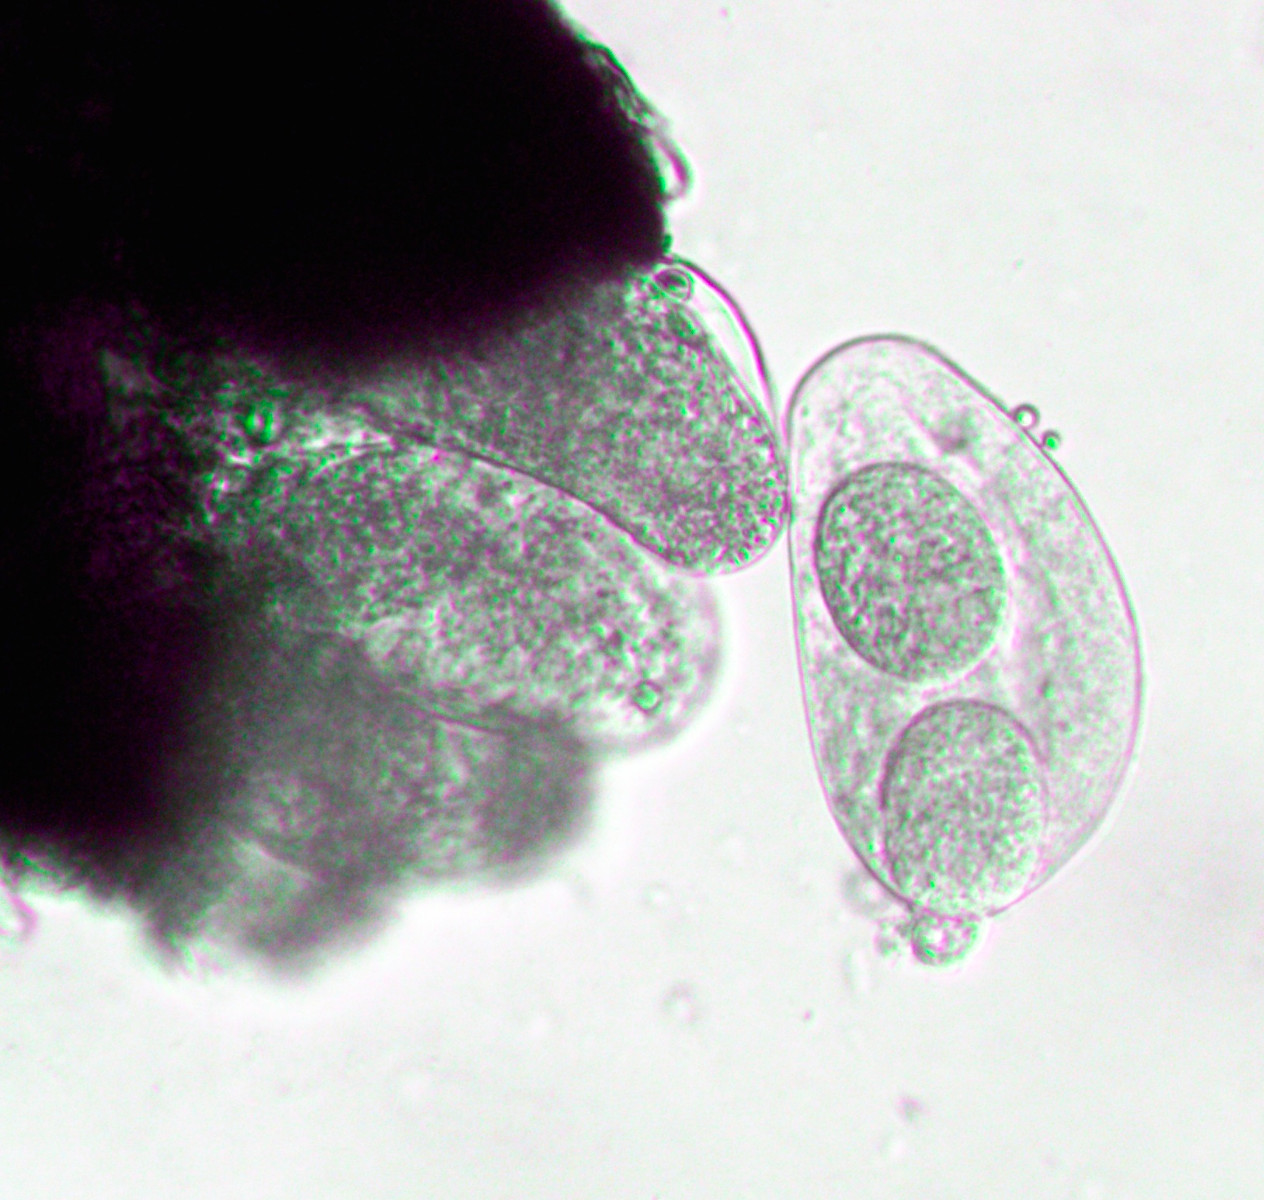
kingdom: Fungi
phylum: Ascomycota
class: Leotiomycetes
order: Helotiales
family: Erysiphaceae
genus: Golovinomyces
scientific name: Golovinomyces artemisiae
